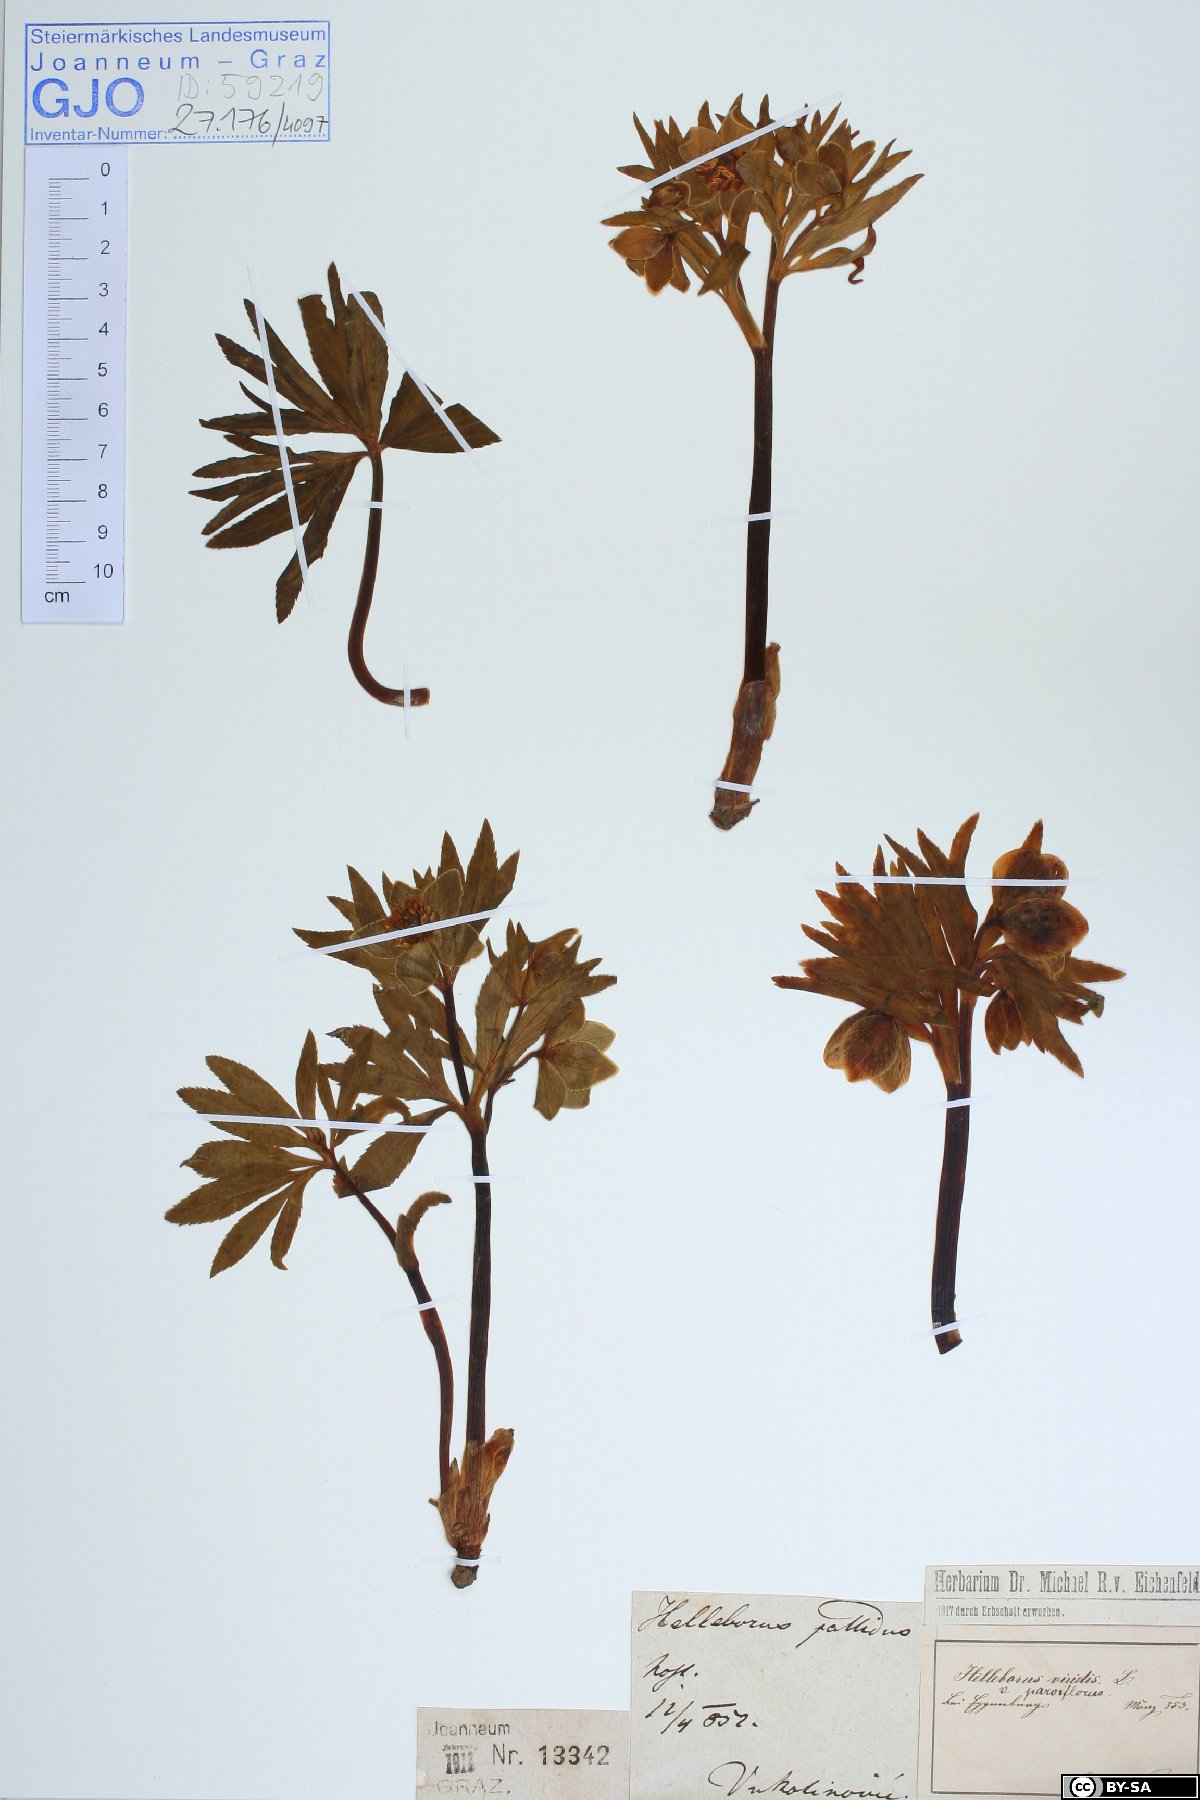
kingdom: Plantae
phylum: Tracheophyta
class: Magnoliopsida
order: Ranunculales
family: Ranunculaceae
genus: Helleborus
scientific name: Helleborus dumetorum
